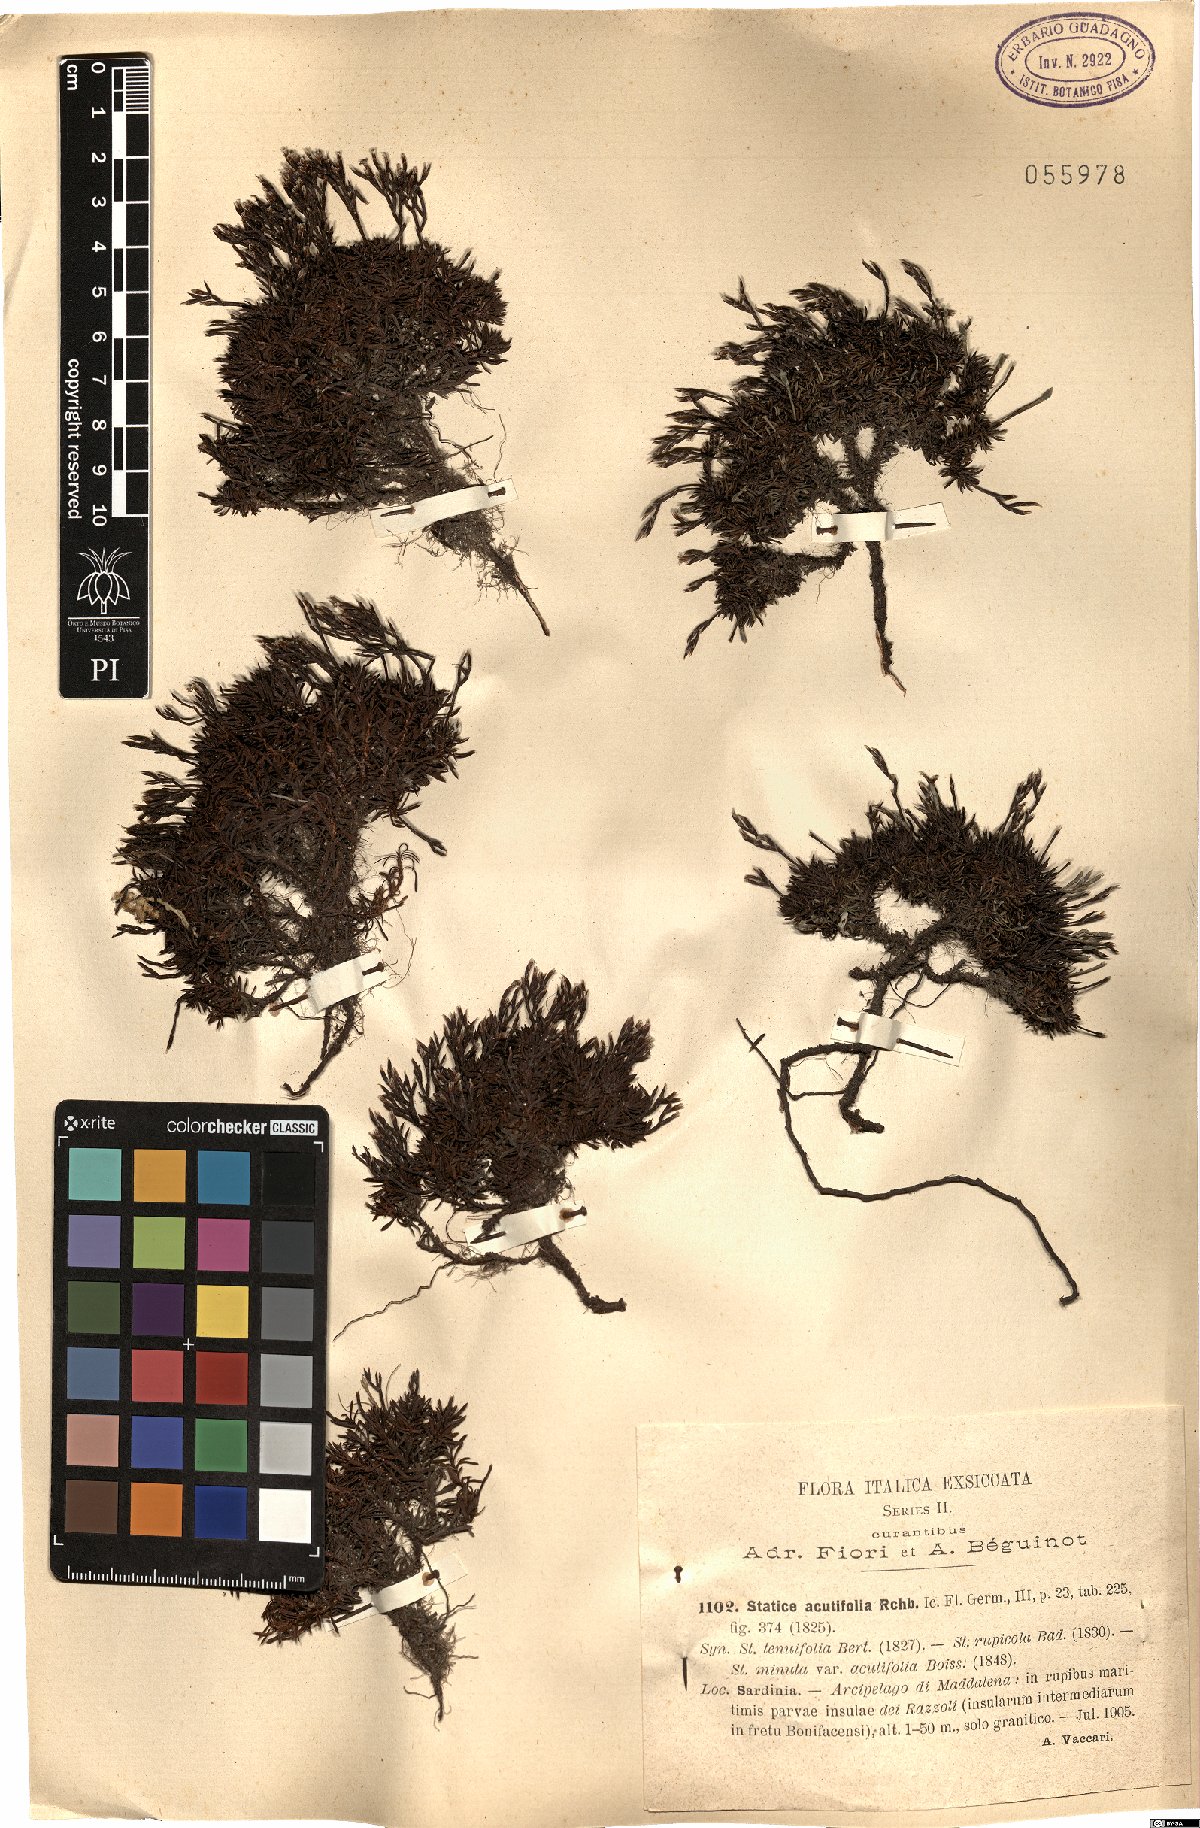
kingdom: Plantae
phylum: Tracheophyta
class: Magnoliopsida
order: Caryophyllales
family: Plumbaginaceae
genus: Limonium
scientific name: Limonium lobatum
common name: Winged sea-lavender
